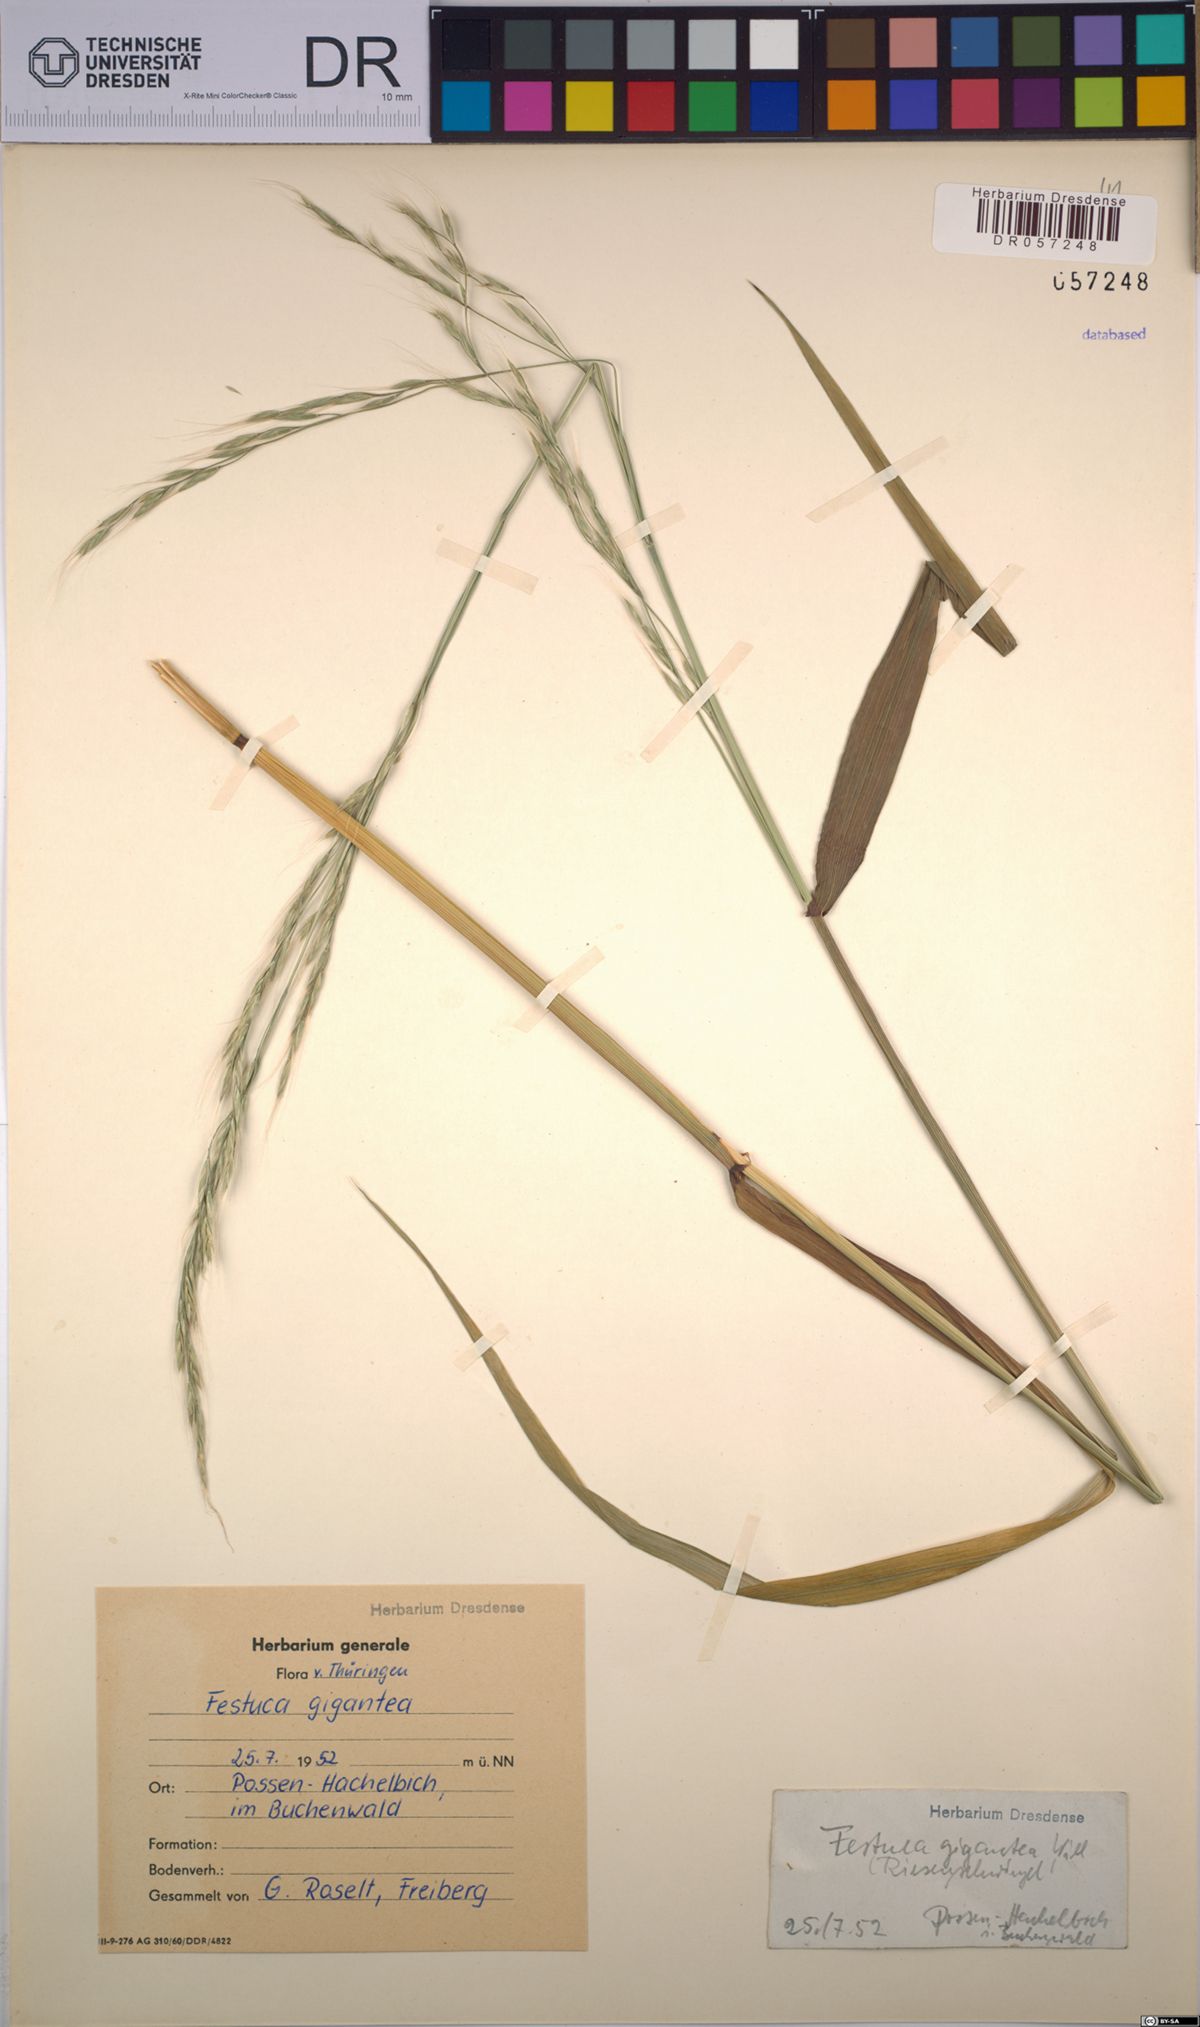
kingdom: Plantae
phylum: Tracheophyta
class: Liliopsida
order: Poales
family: Poaceae
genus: Lolium
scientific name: Lolium giganteum
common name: Giant fescue
